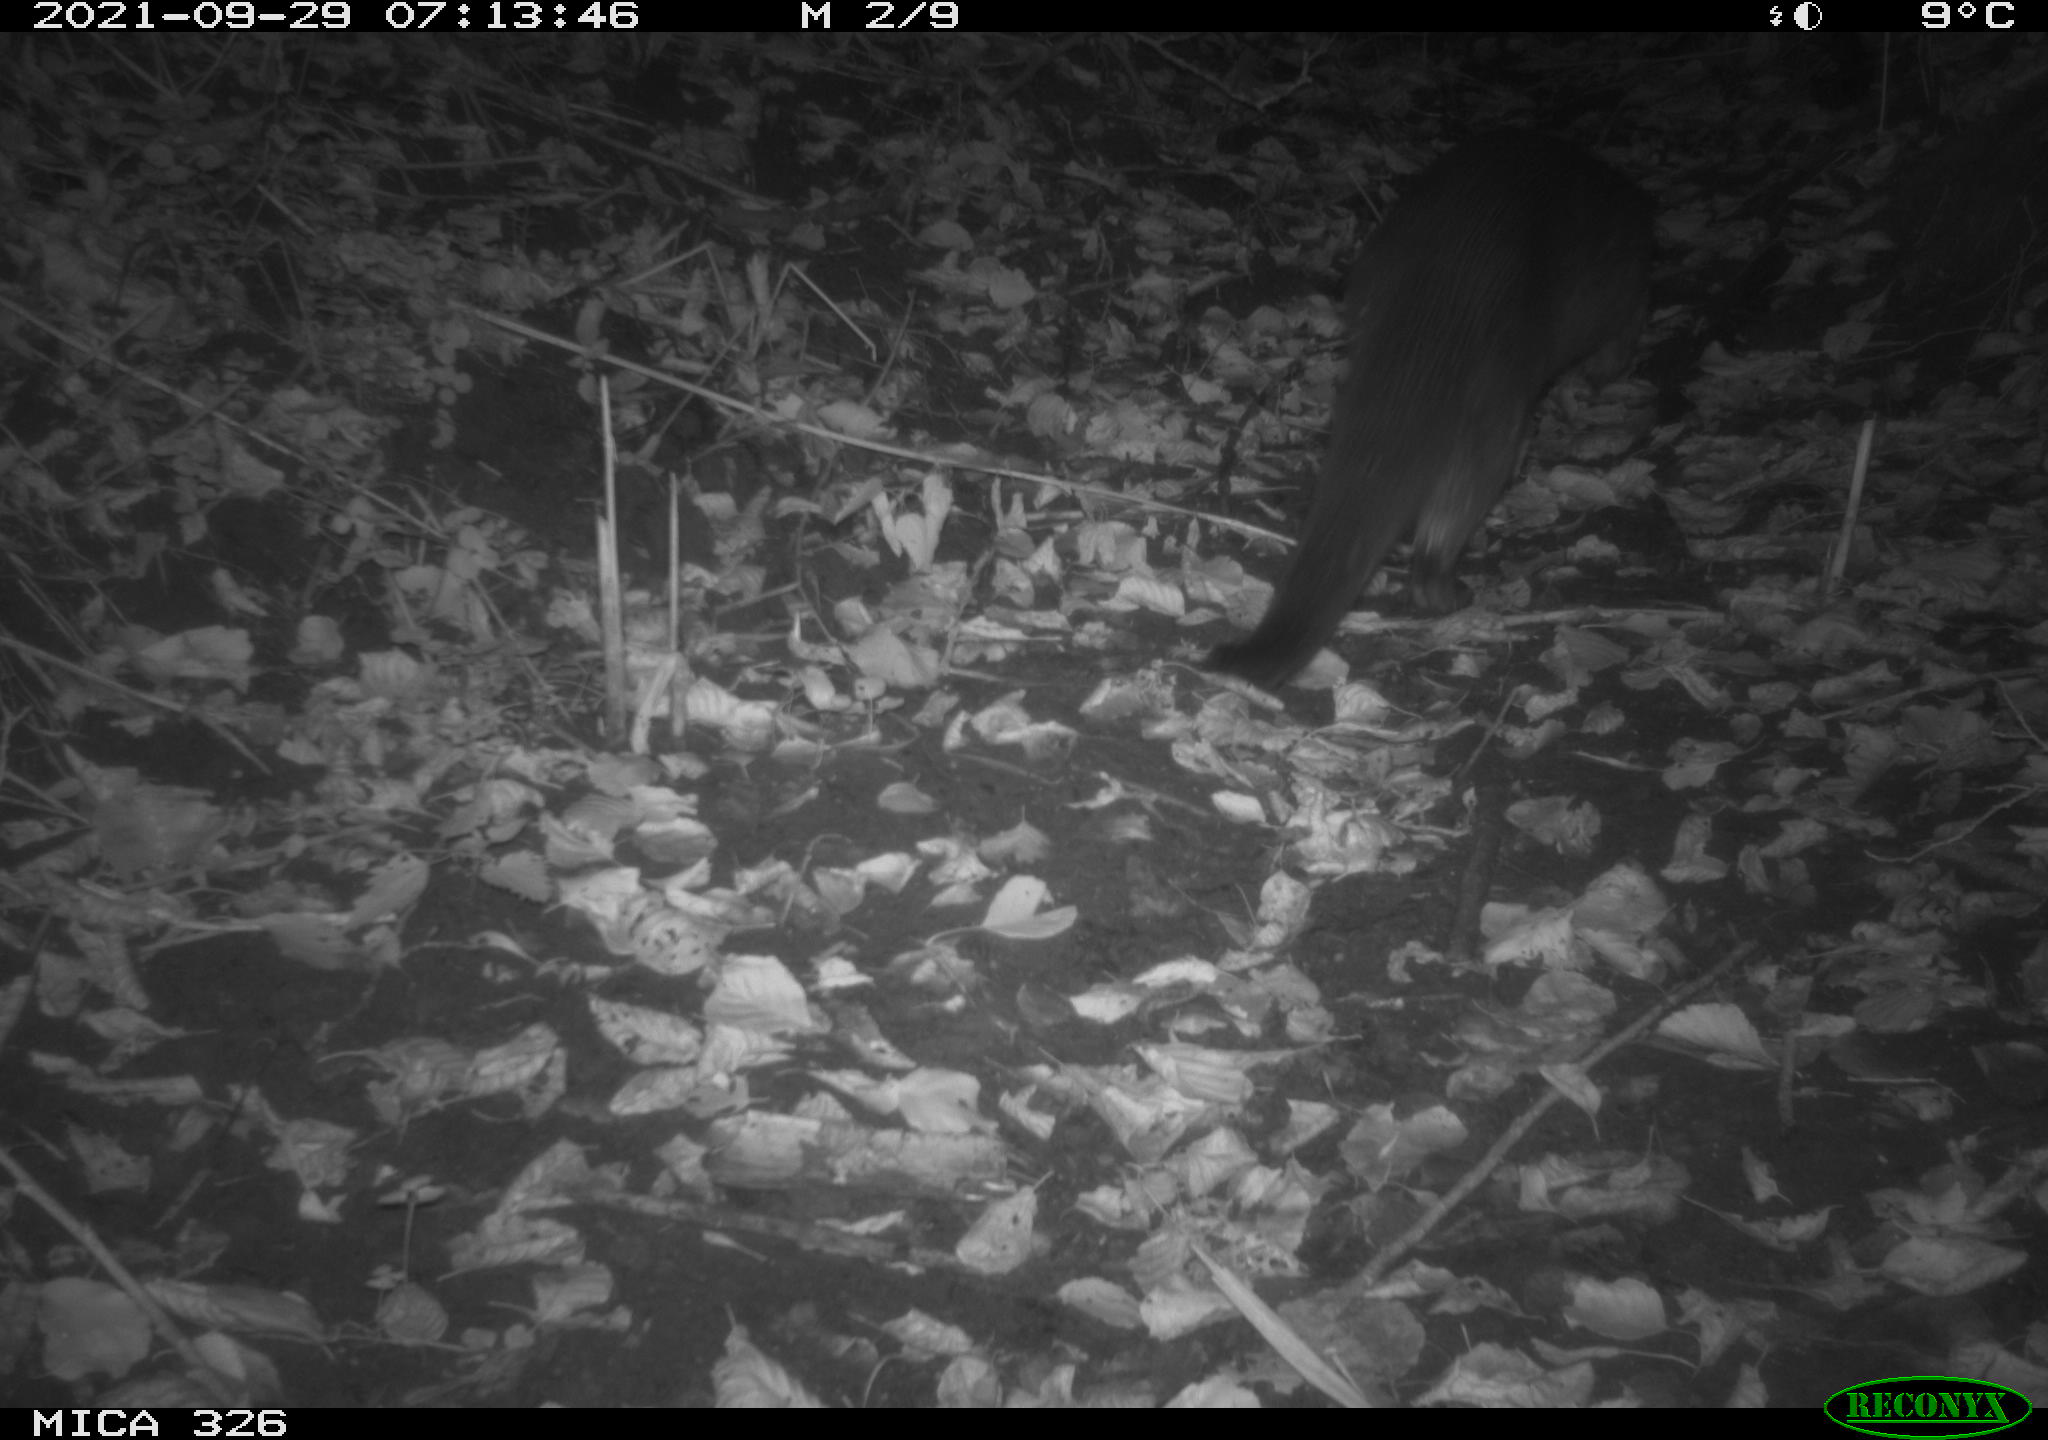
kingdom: Animalia
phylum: Chordata
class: Mammalia
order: Carnivora
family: Mustelidae
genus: Lutra
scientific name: Lutra lutra
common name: European otter
